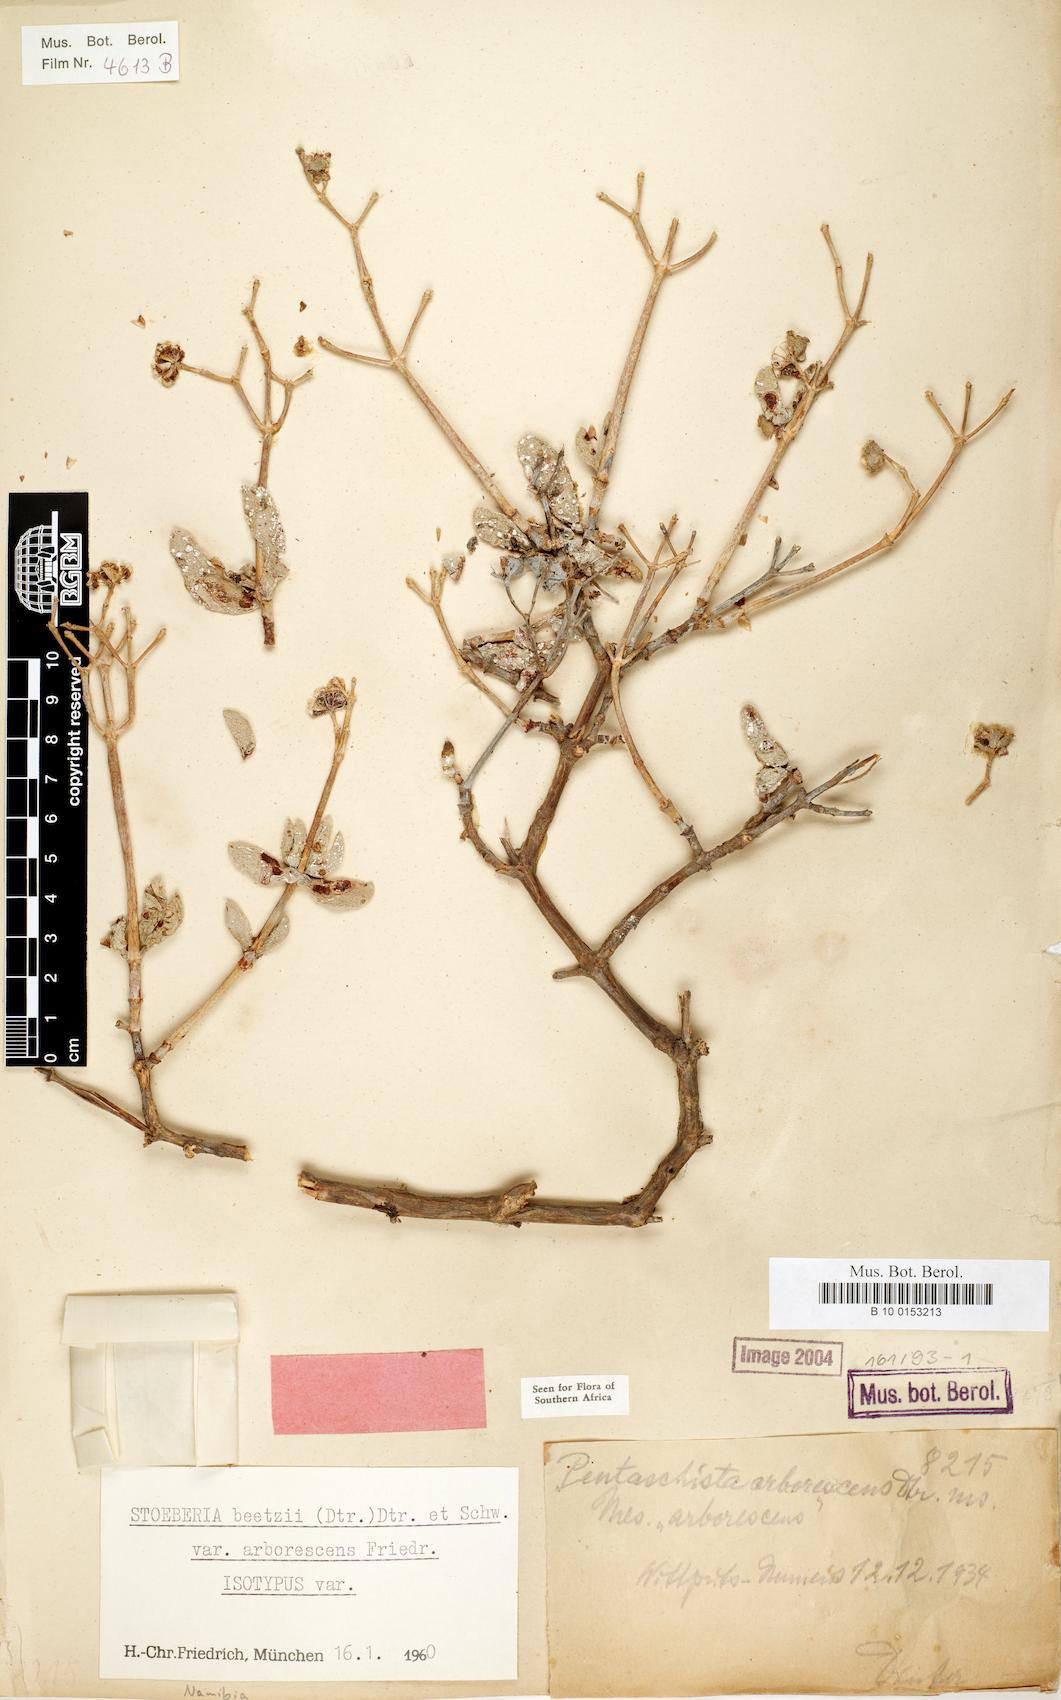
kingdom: Plantae
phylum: Tracheophyta
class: Magnoliopsida
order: Caryophyllales
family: Aizoaceae
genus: Stoeberia
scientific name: Stoeberia frutescens
